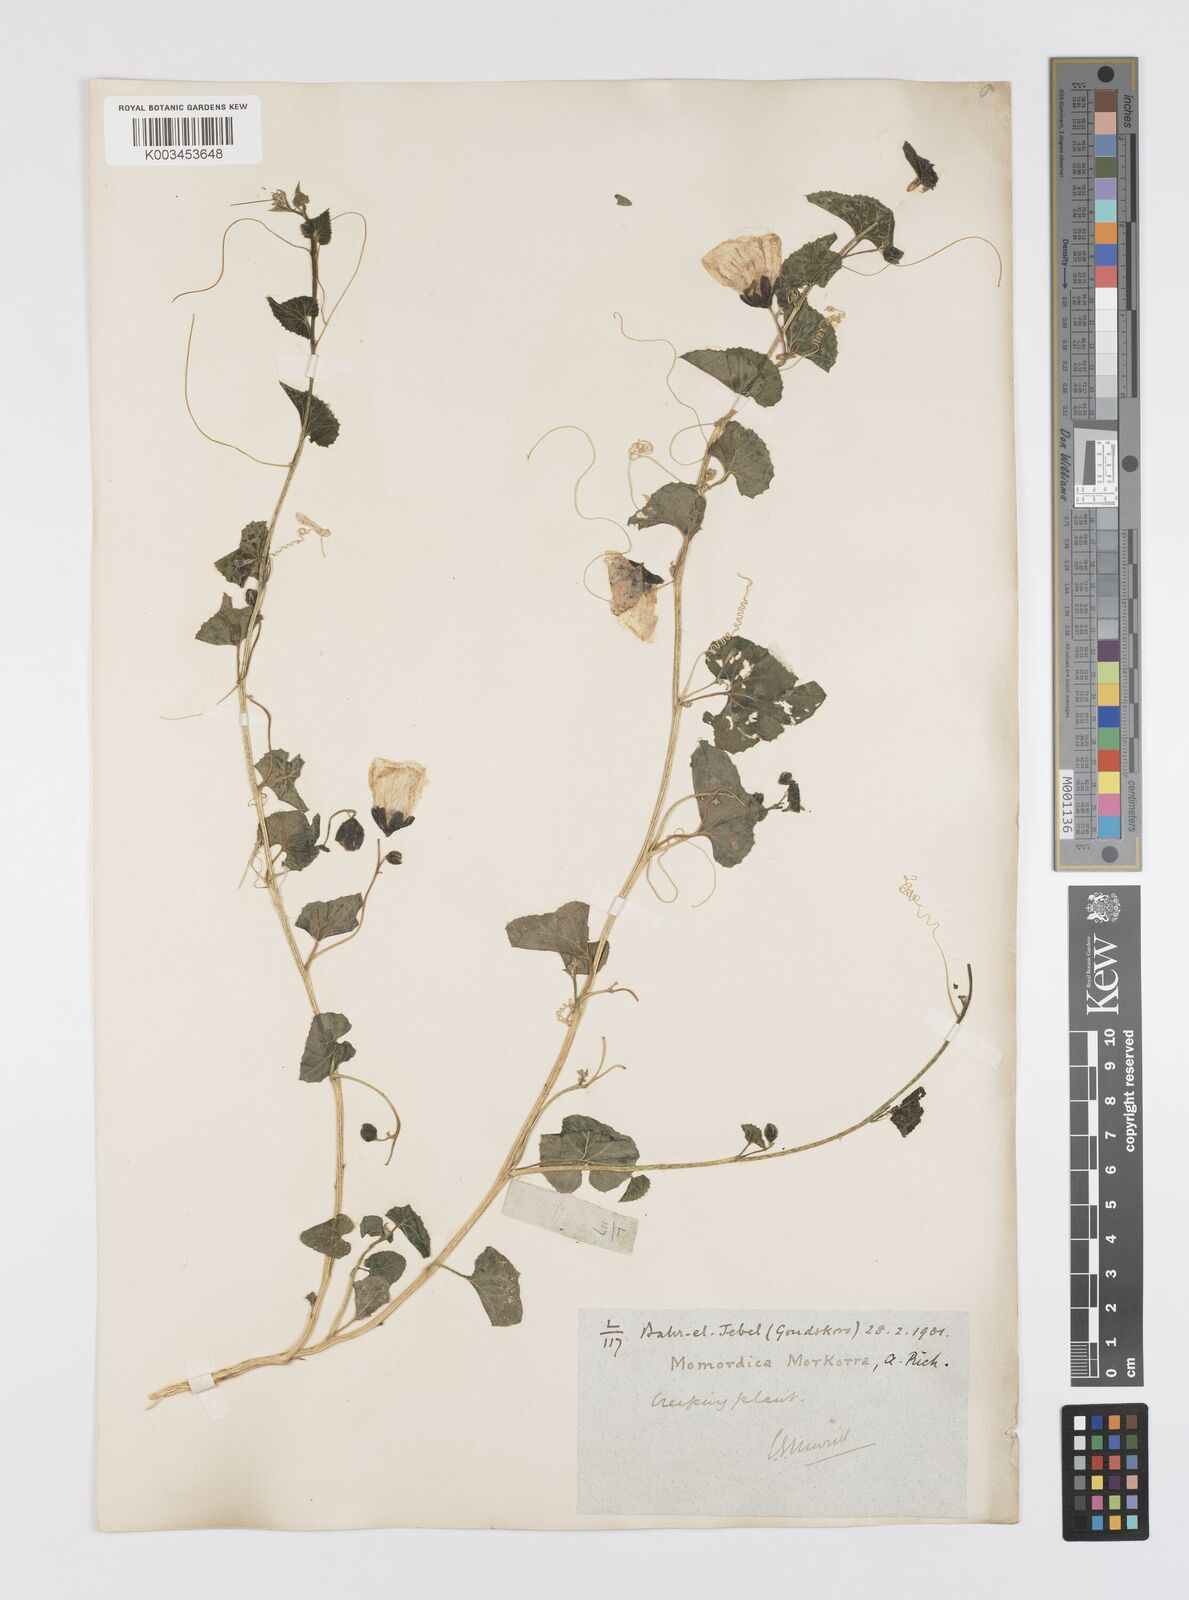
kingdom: Plantae
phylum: Tracheophyta
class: Magnoliopsida
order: Cucurbitales
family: Cucurbitaceae
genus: Momordica
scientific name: Momordica foetida
